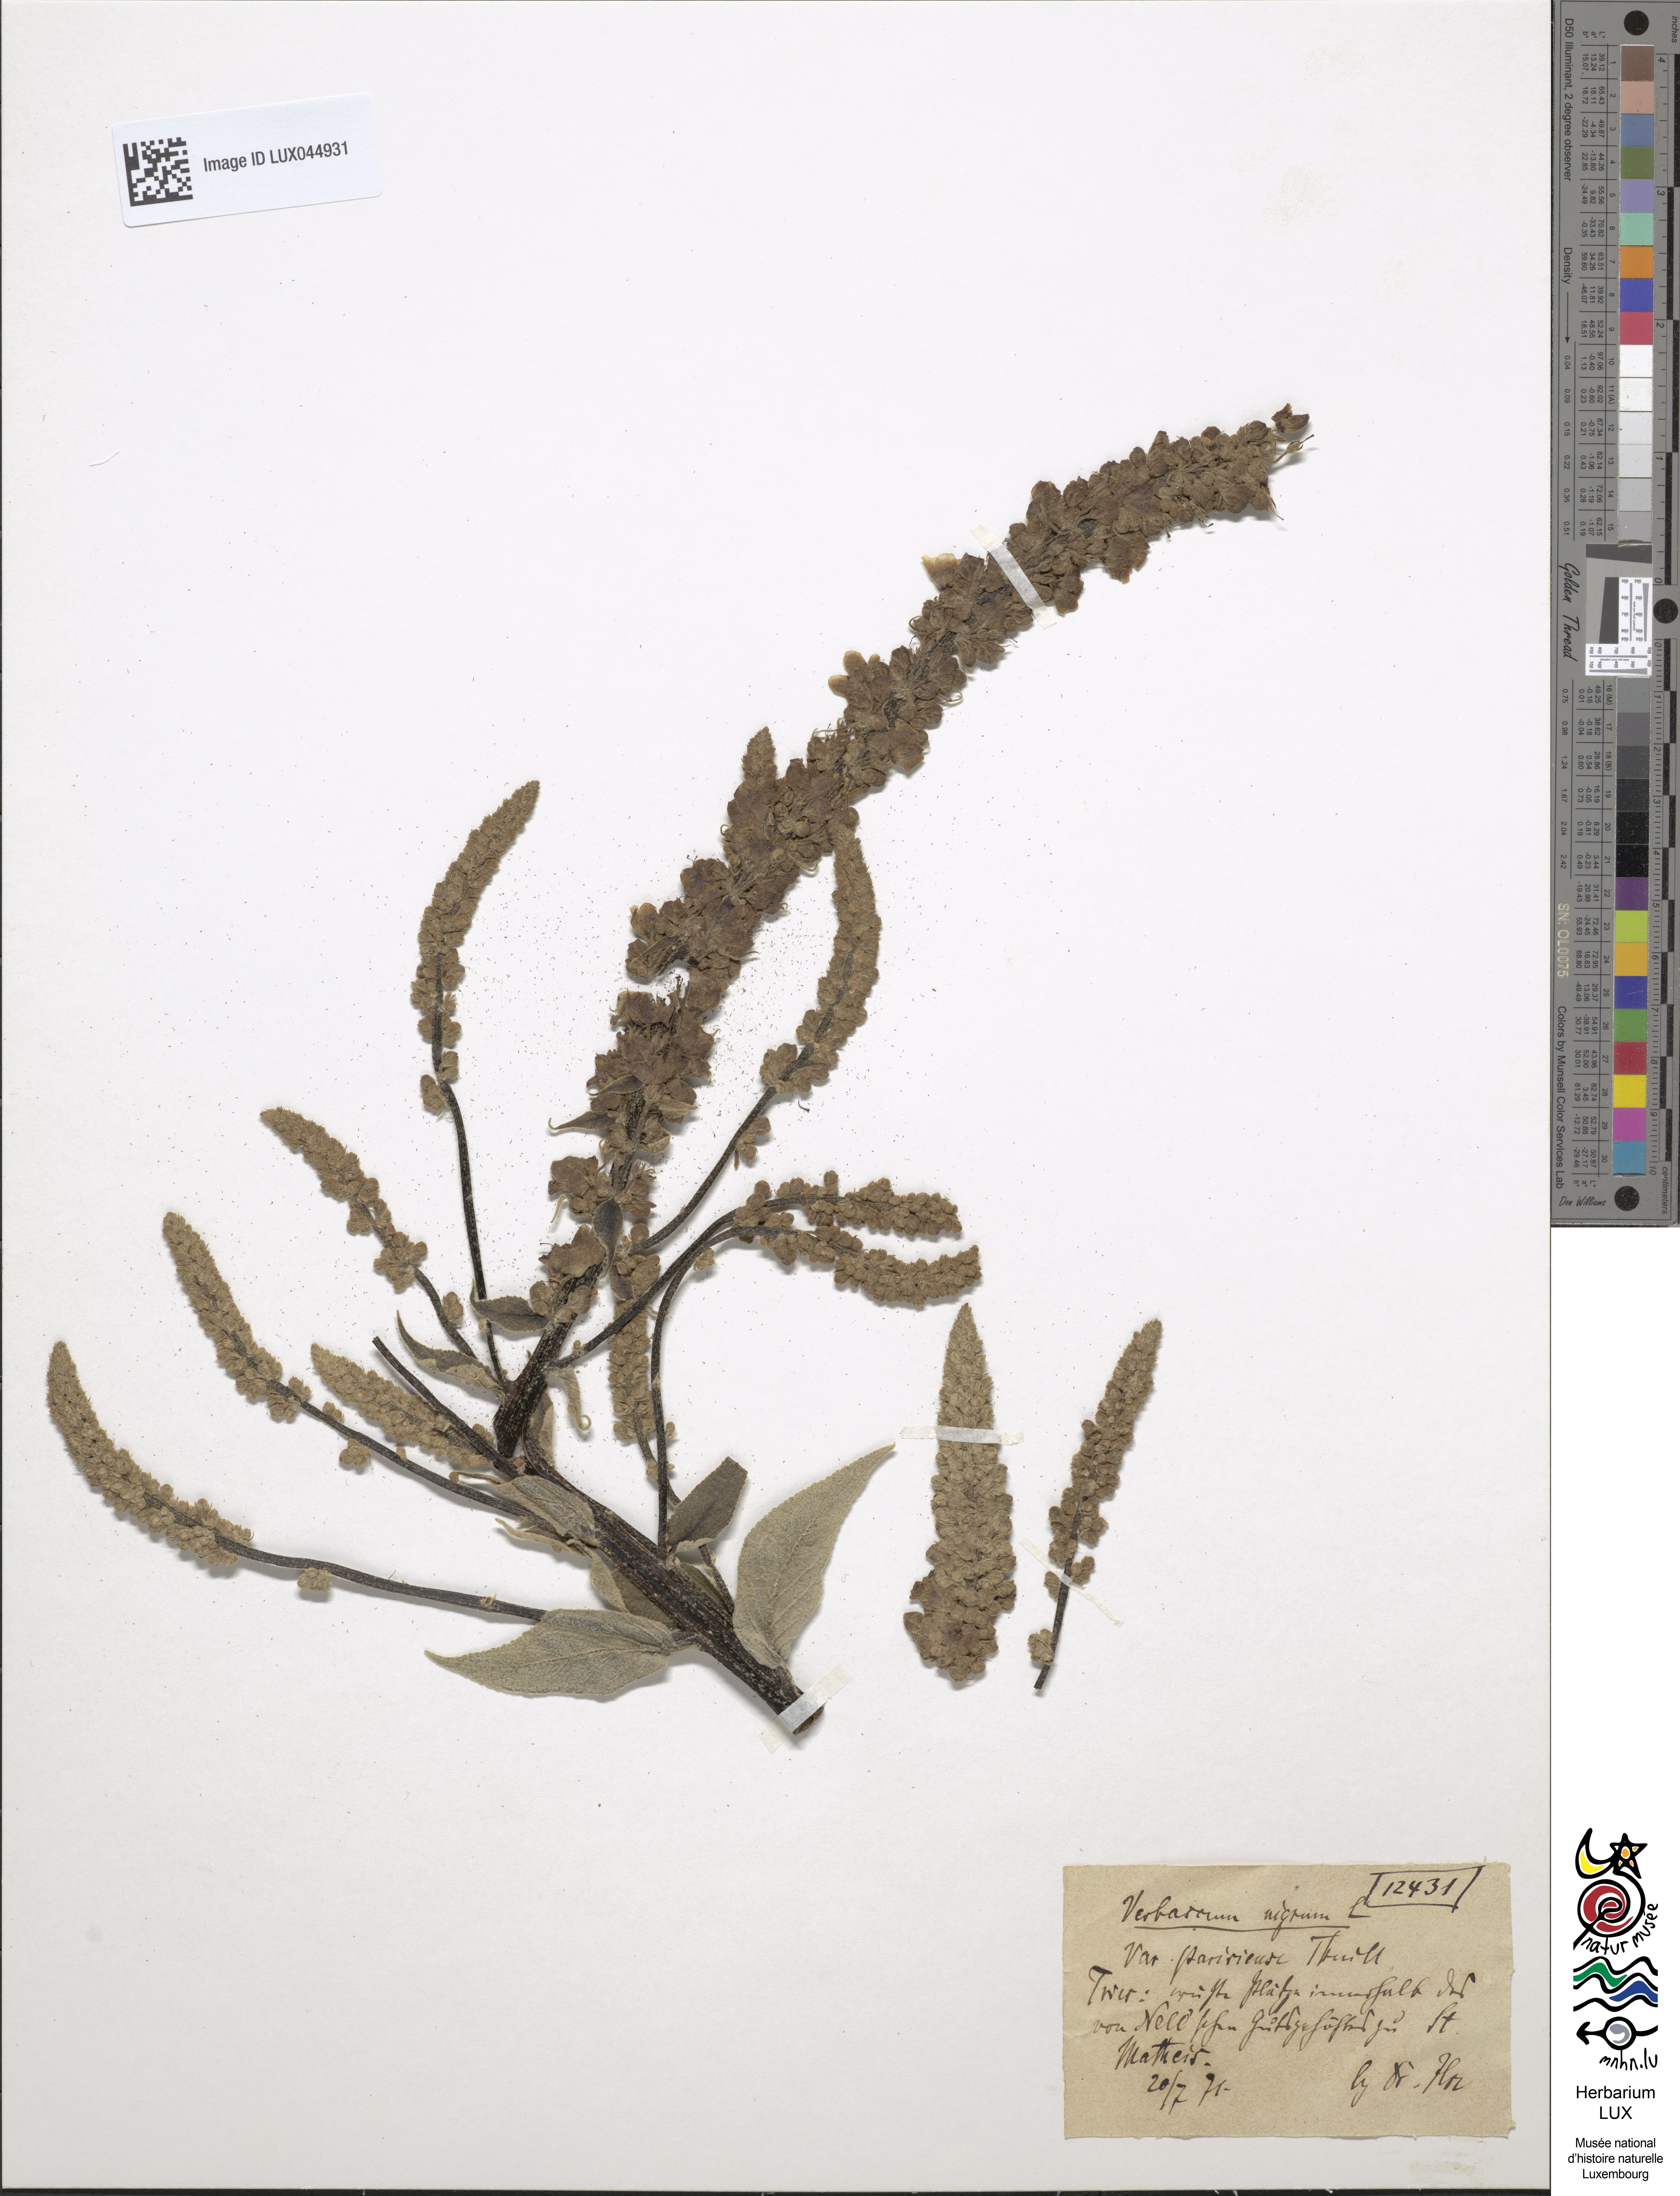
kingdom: Plantae
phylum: Tracheophyta
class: Magnoliopsida
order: Lamiales
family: Scrophulariaceae
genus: Verbascum
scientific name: Verbascum nigrum
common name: Dark mullein
